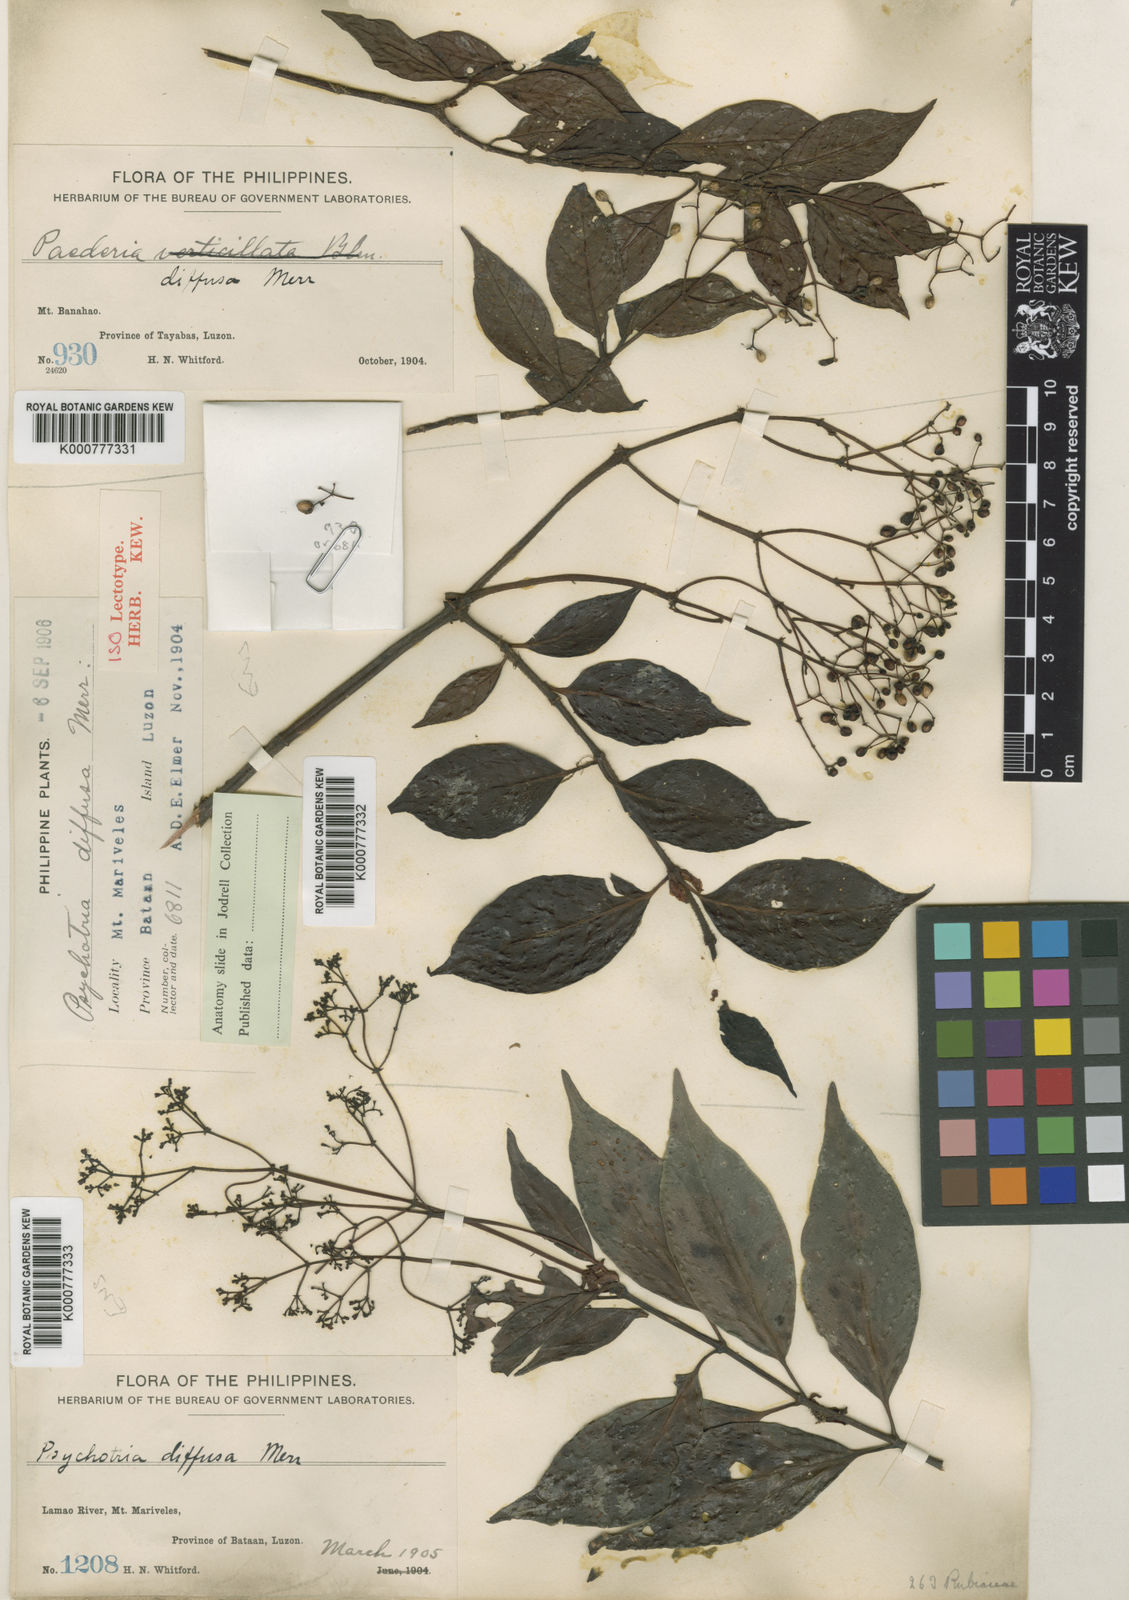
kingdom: Plantae
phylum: Tracheophyta
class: Magnoliopsida
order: Gentianales
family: Rubiaceae
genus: Psychotria
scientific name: Psychotria diffusa
